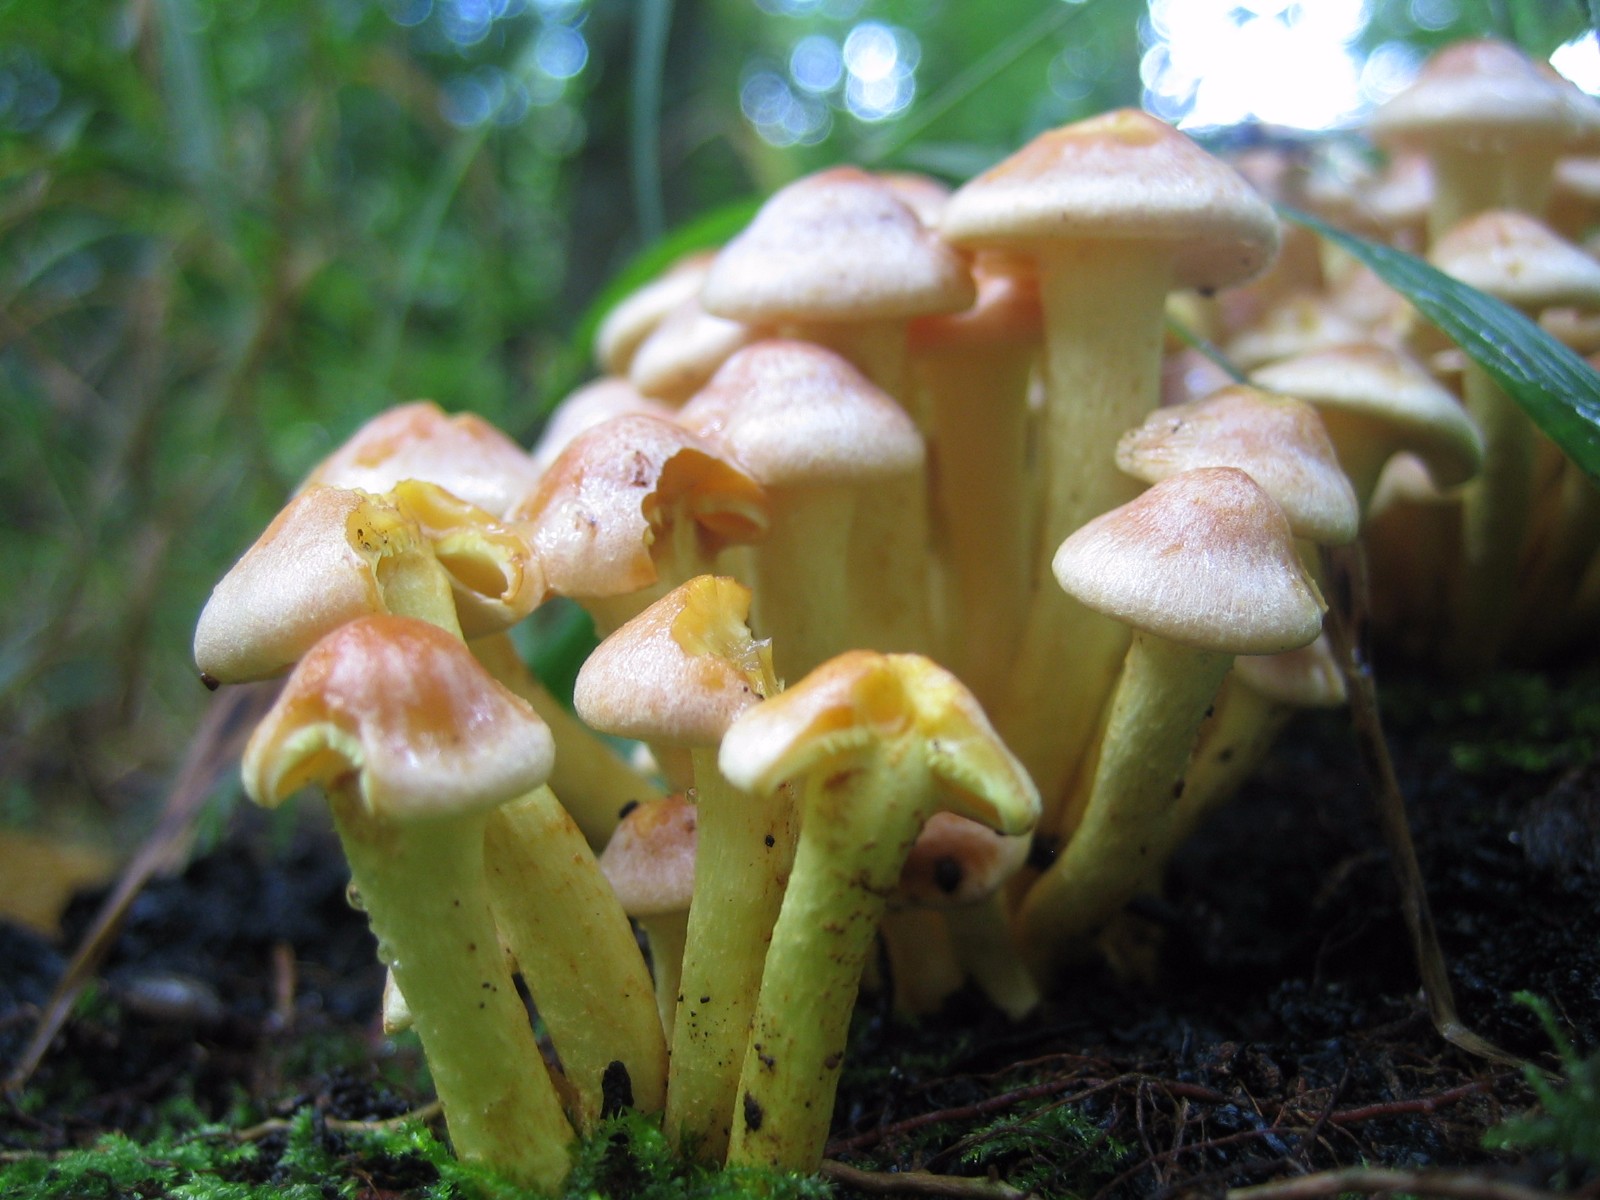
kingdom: Fungi
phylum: Basidiomycota
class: Agaricomycetes
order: Agaricales
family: Strophariaceae
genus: Hypholoma
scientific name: Hypholoma fasciculare
